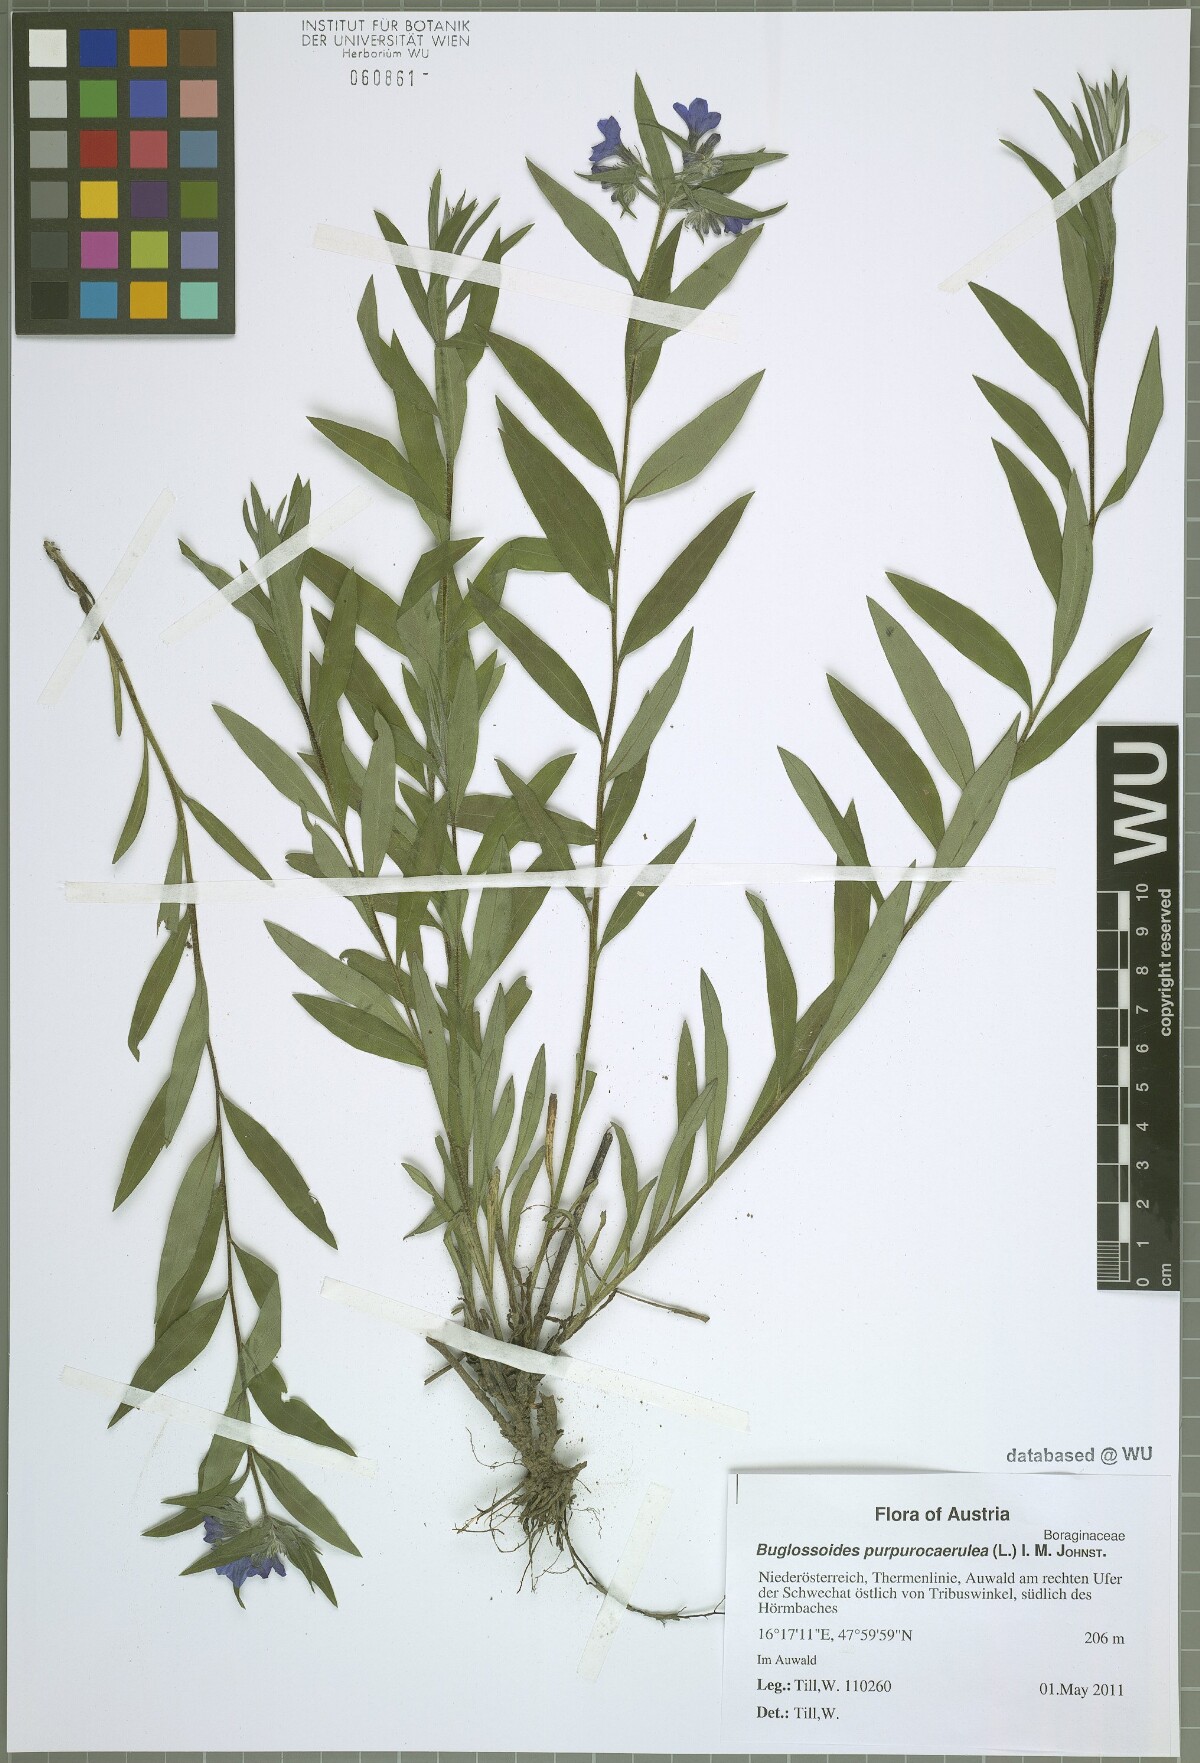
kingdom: Plantae
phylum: Tracheophyta
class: Magnoliopsida
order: Boraginales
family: Boraginaceae
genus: Aegonychon
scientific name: Aegonychon purpurocaeruleum
